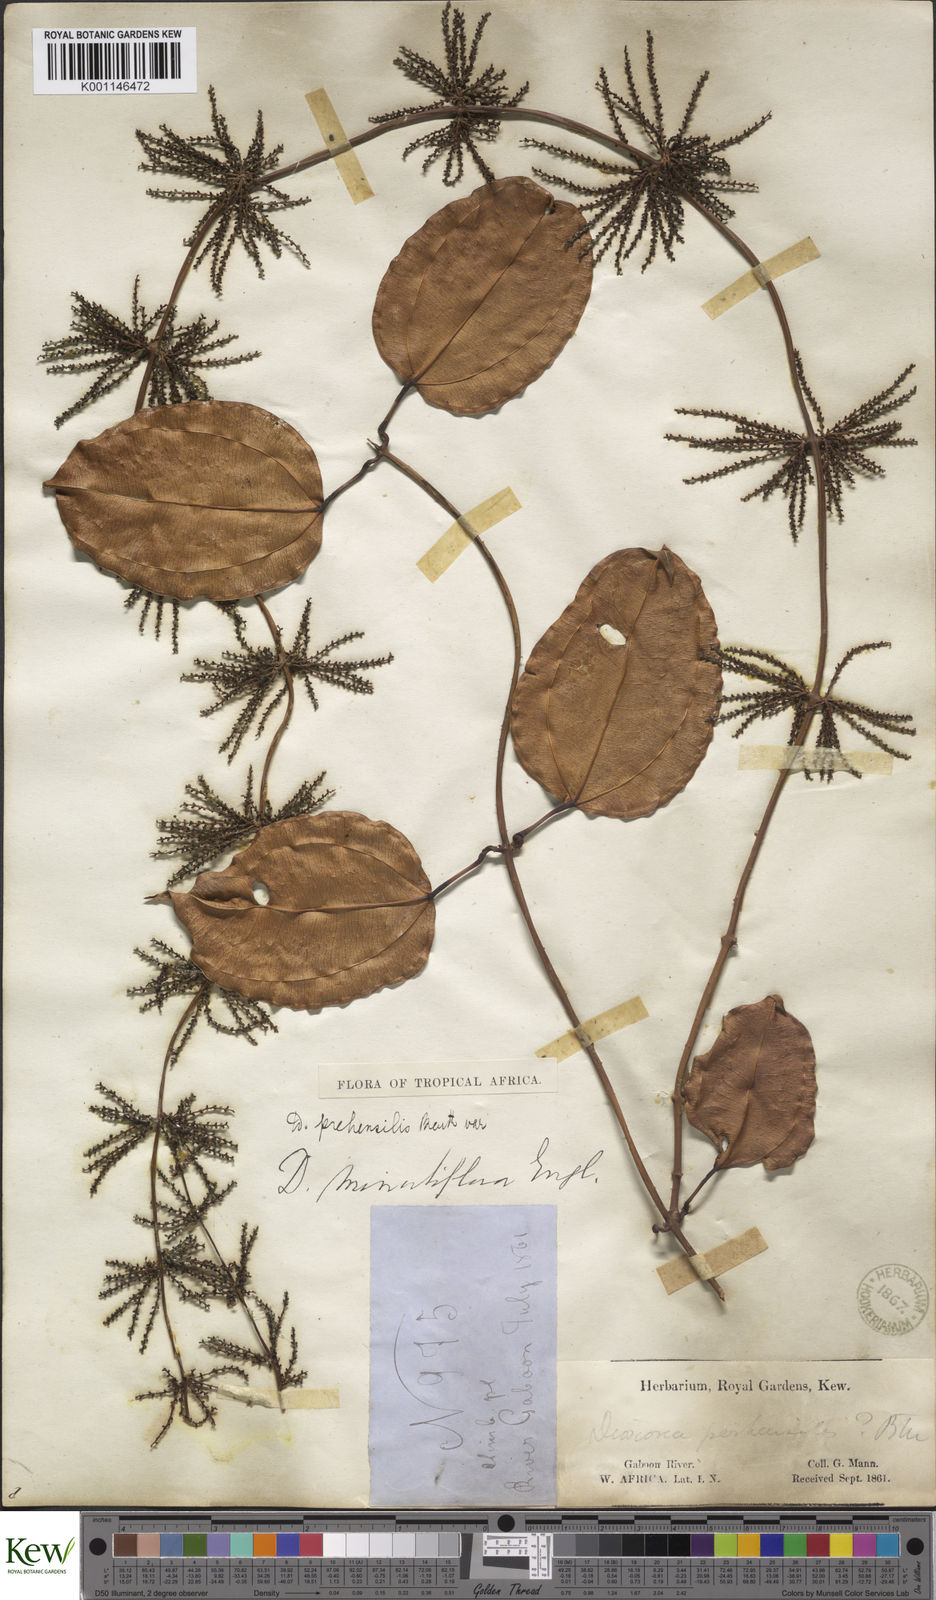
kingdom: Plantae
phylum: Tracheophyta
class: Liliopsida
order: Dioscoreales
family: Dioscoreaceae
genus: Dioscorea
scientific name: Dioscorea minutiflora
